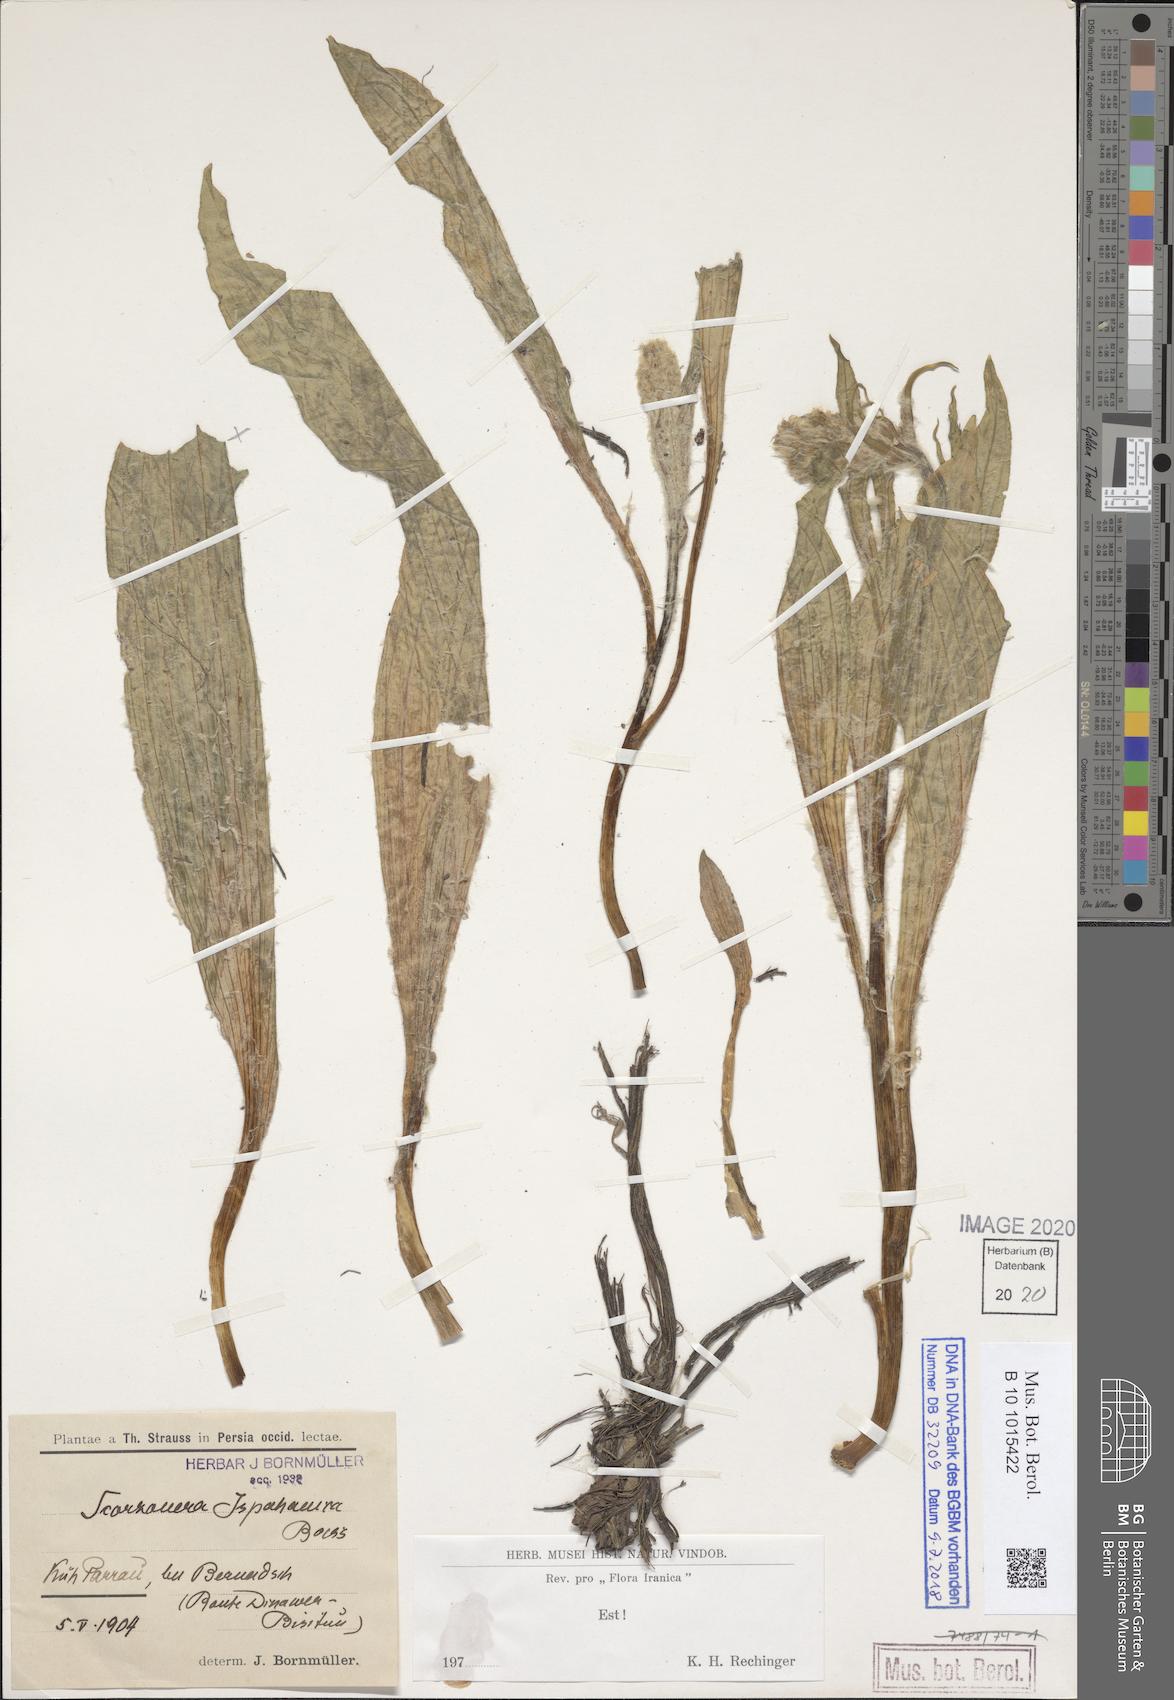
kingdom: Plantae
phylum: Tracheophyta
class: Magnoliopsida
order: Asterales
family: Asteraceae
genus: Scorzonera
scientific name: Scorzonera ispahanica
